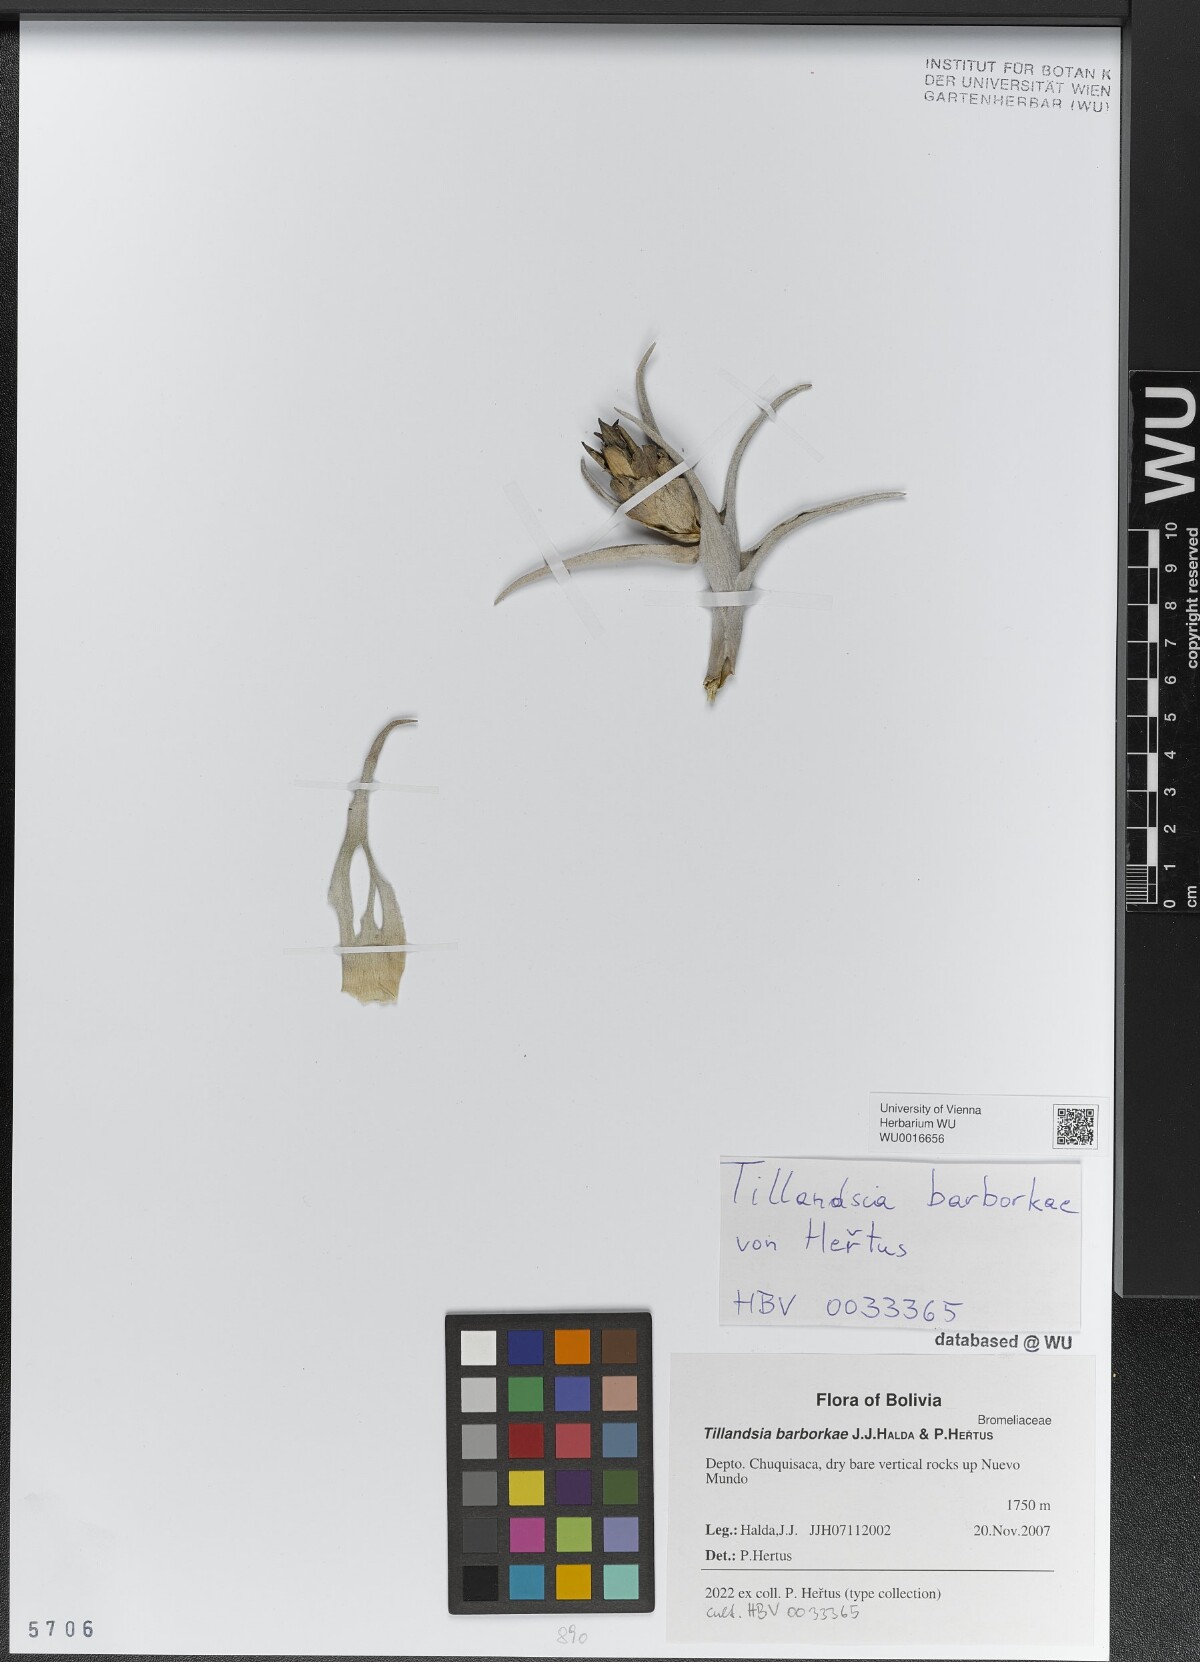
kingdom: Plantae
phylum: Tracheophyta
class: Liliopsida
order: Poales
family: Bromeliaceae
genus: Tillandsia
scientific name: Tillandsia edithae
